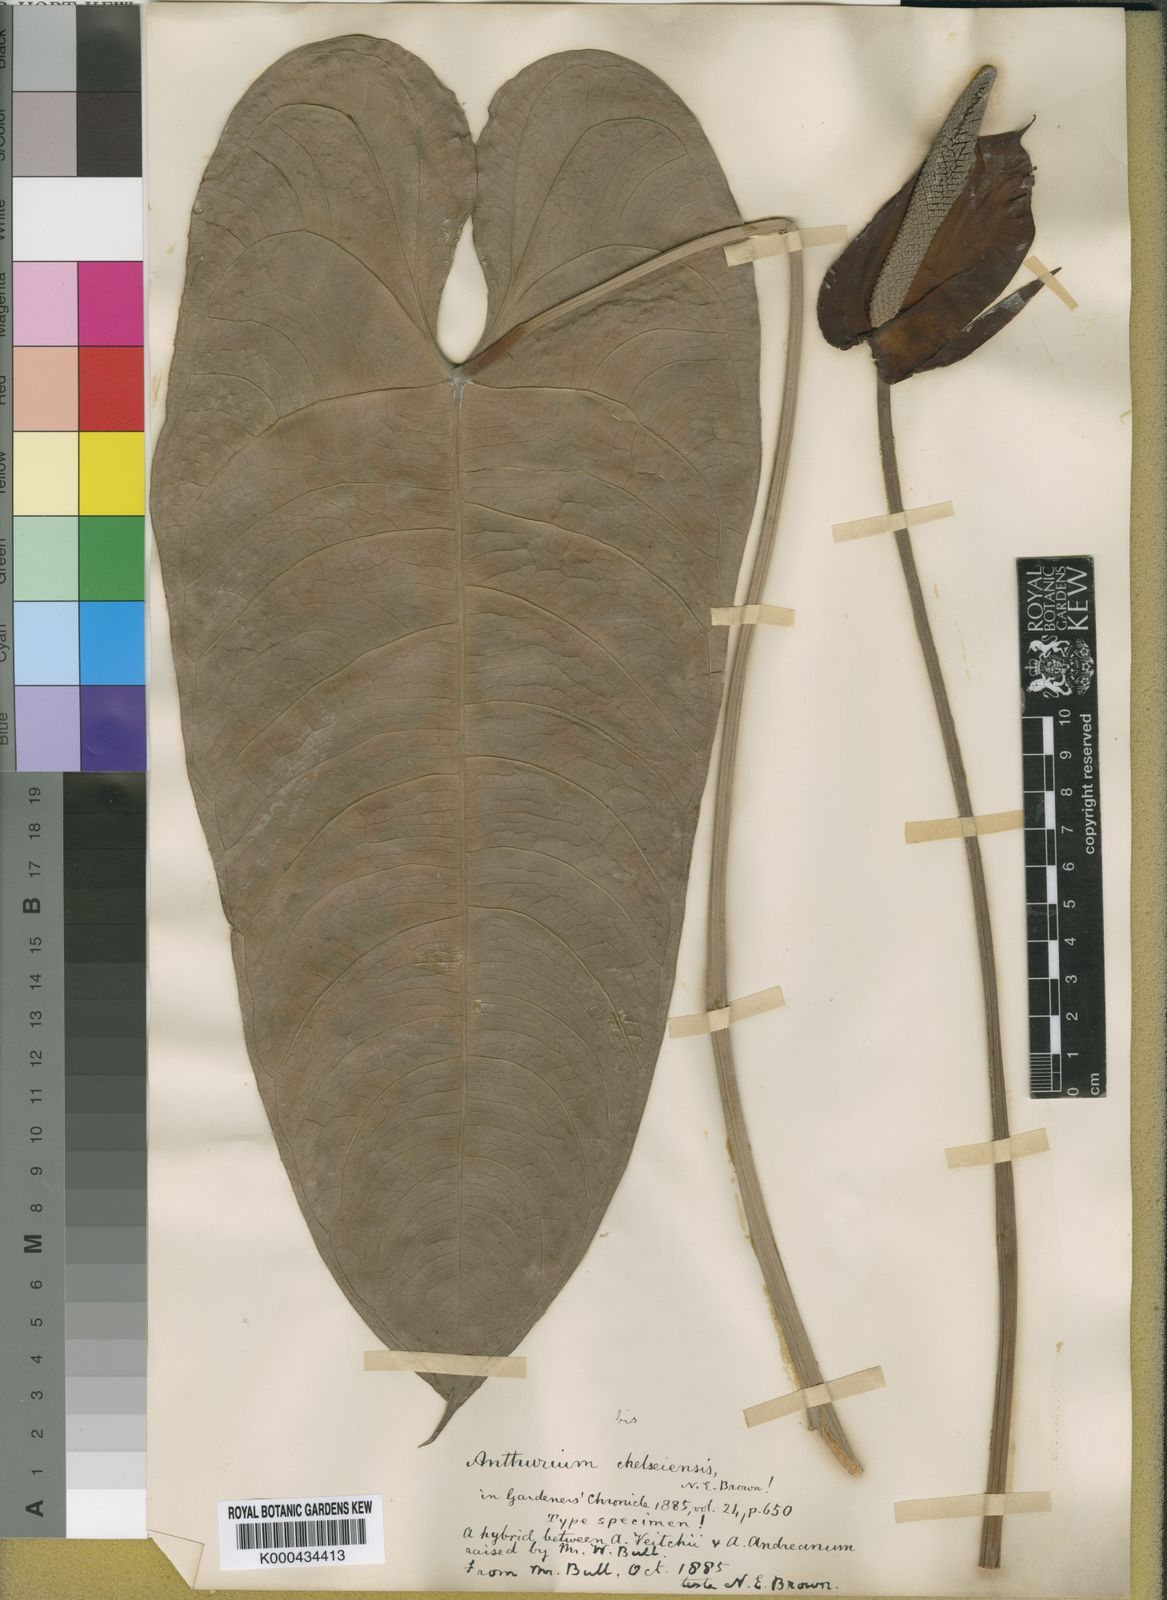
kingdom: Plantae
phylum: Tracheophyta
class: Liliopsida
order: Alismatales
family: Araceae
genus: Anthurium
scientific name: Anthurium
